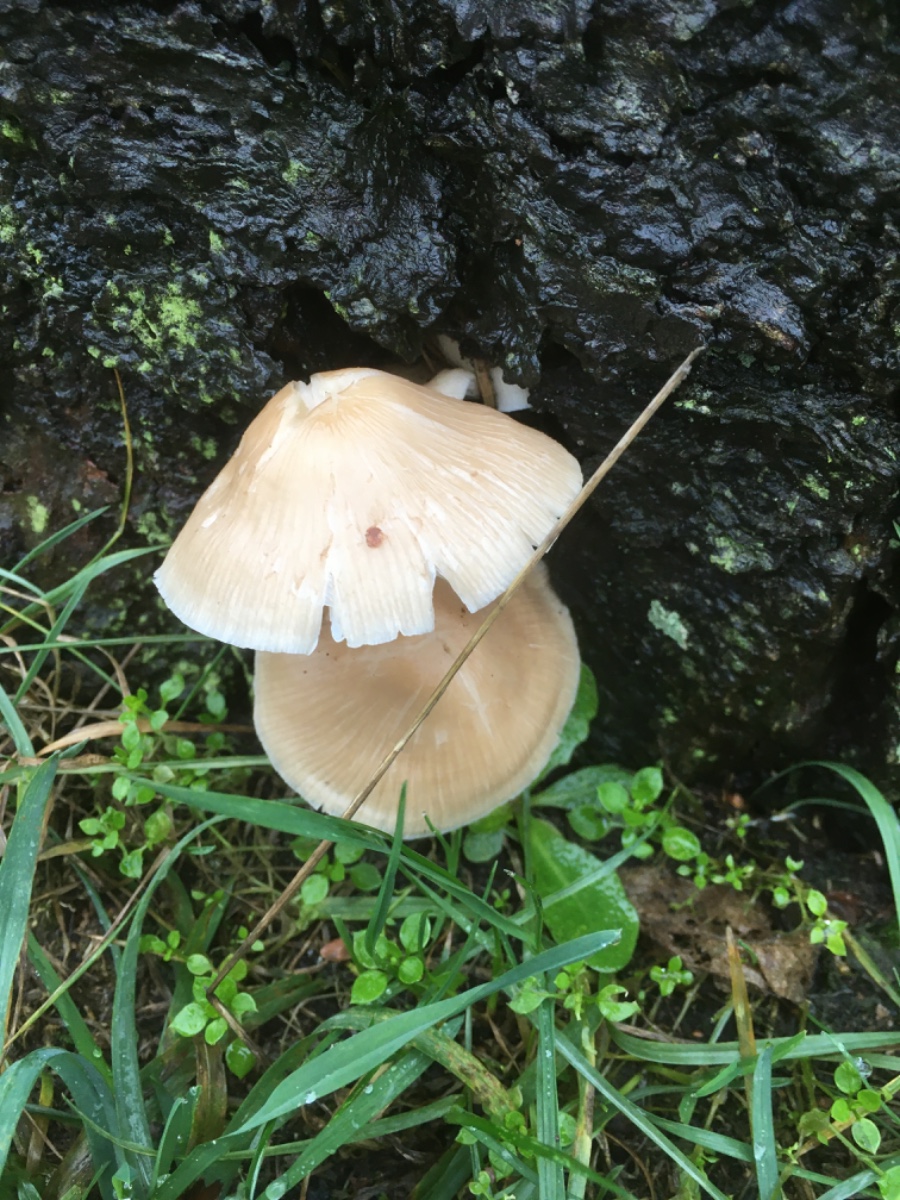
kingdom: Fungi
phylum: Basidiomycota
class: Agaricomycetes
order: Agaricales
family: Mycenaceae
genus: Mycena
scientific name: Mycena
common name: huesvamp
